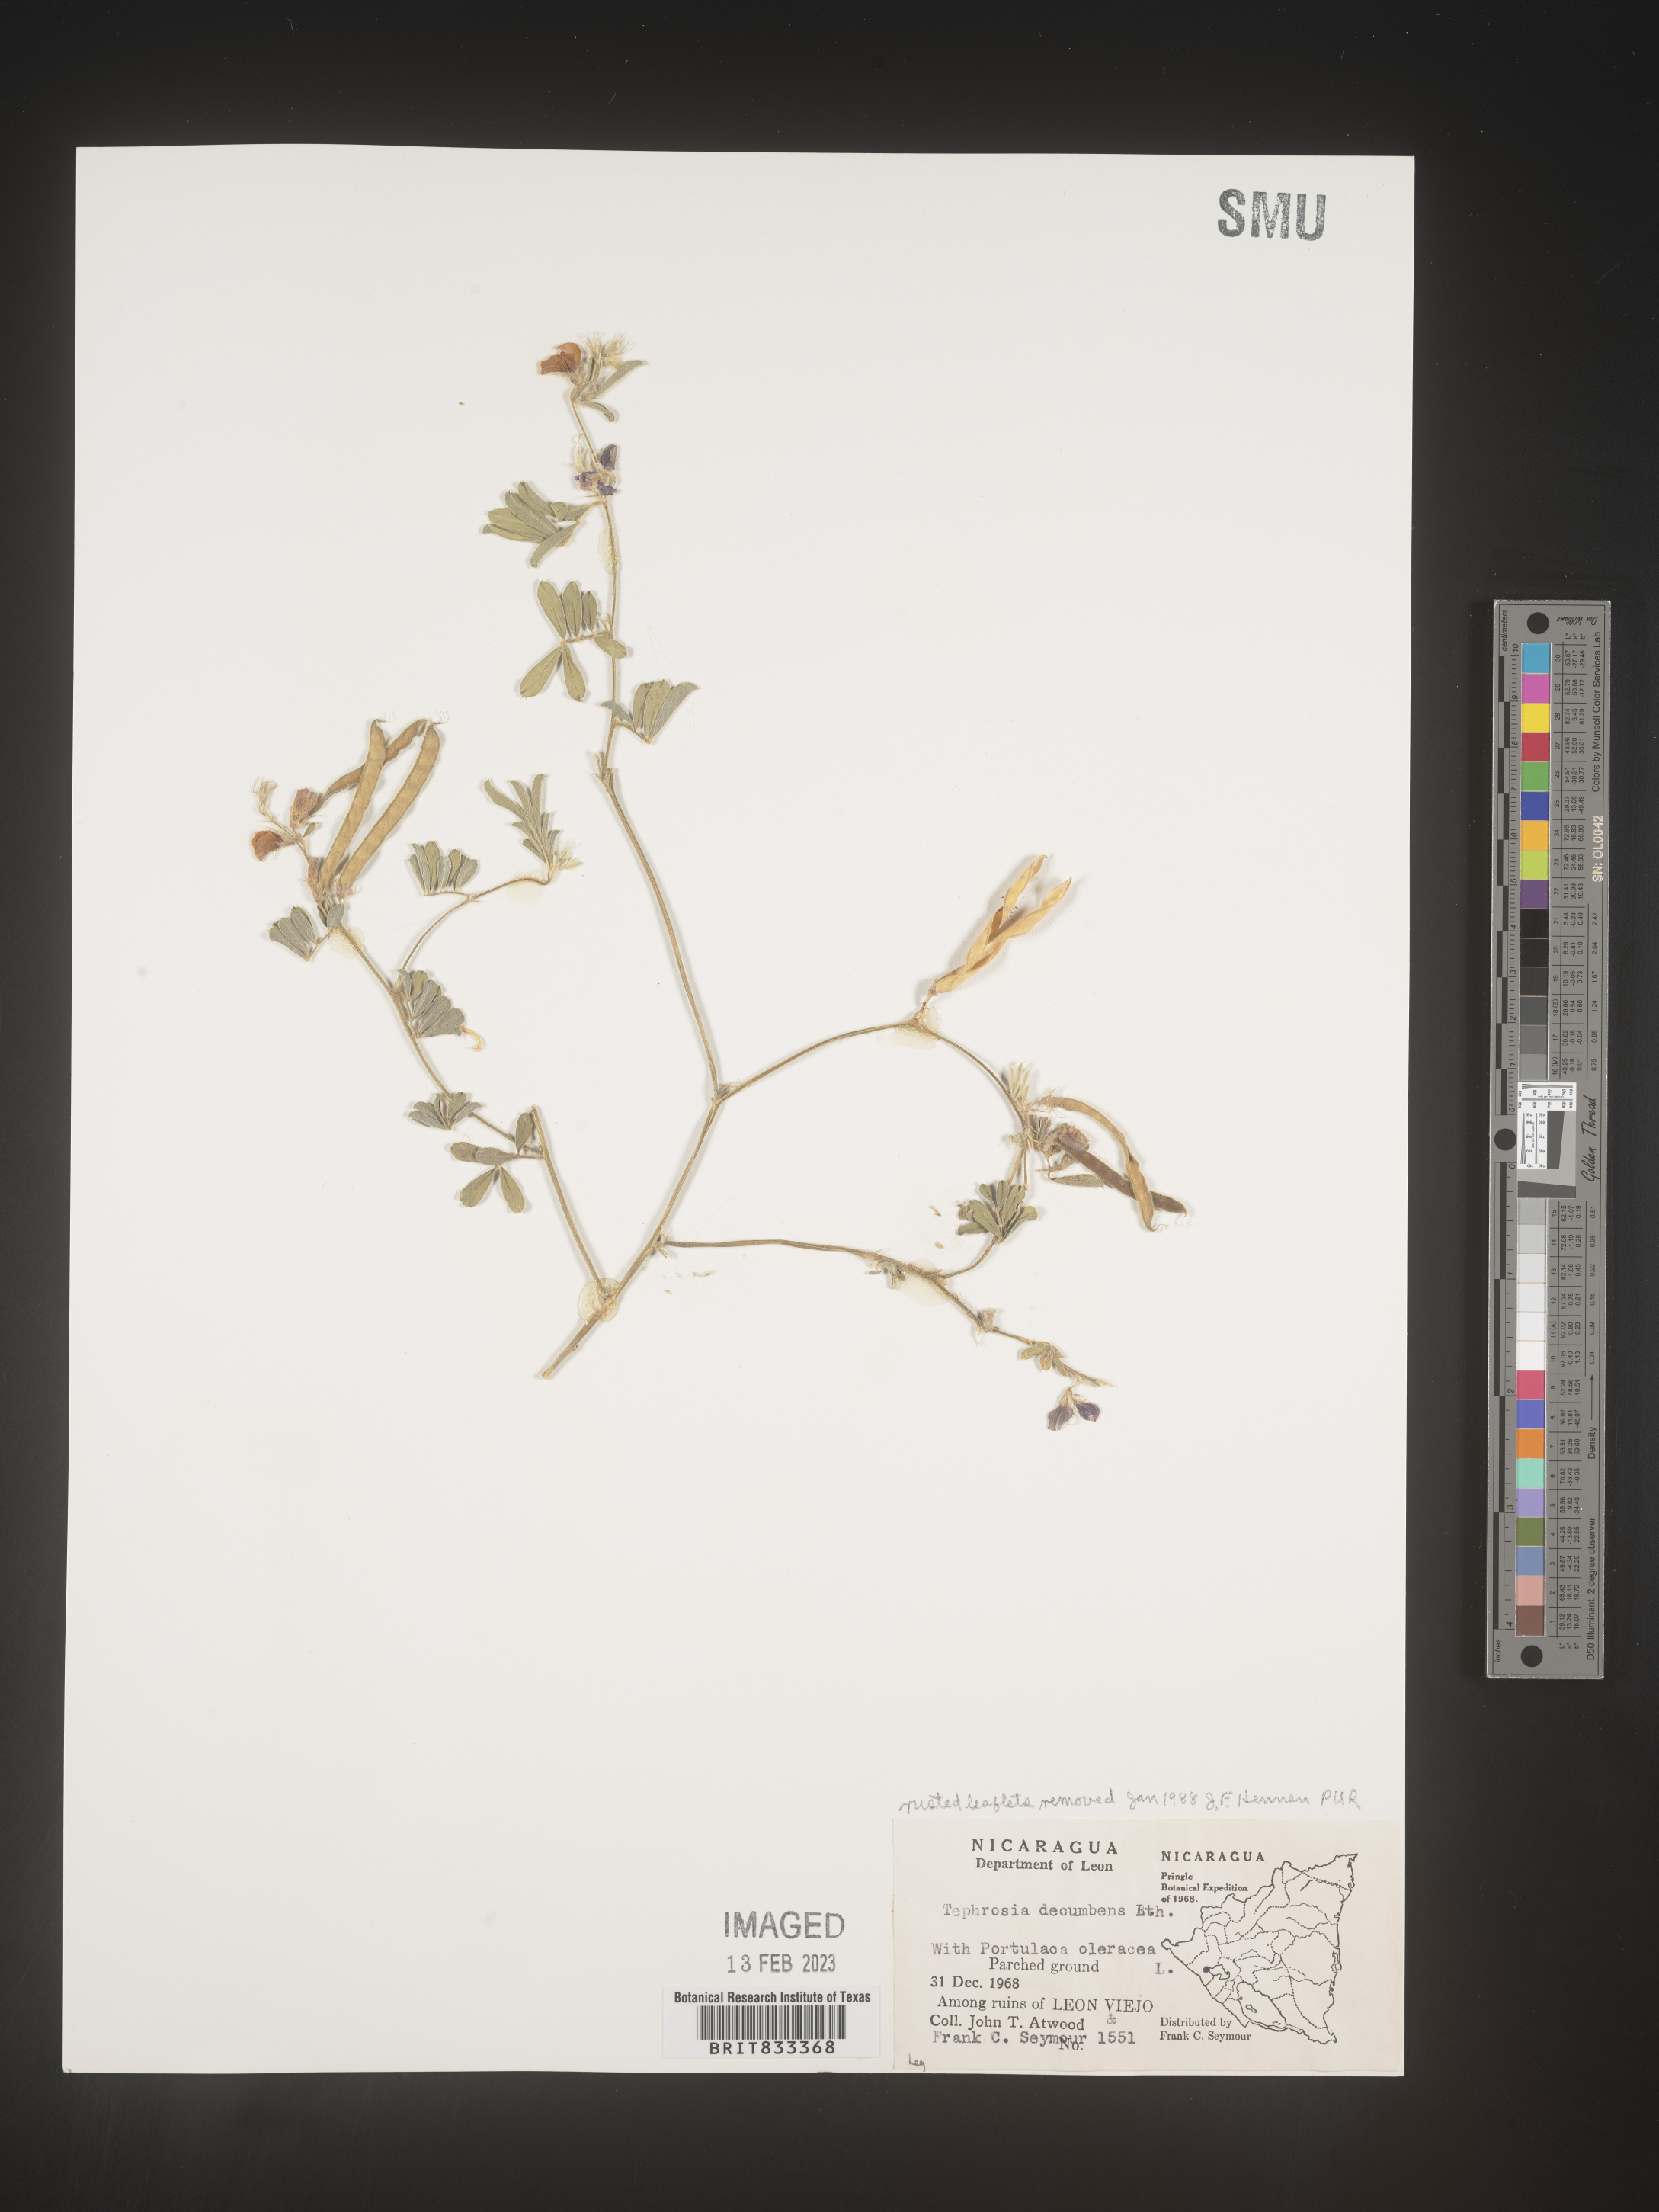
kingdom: Plantae
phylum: Tracheophyta
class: Magnoliopsida
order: Fabales
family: Fabaceae
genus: Tephrosia
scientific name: Tephrosia
